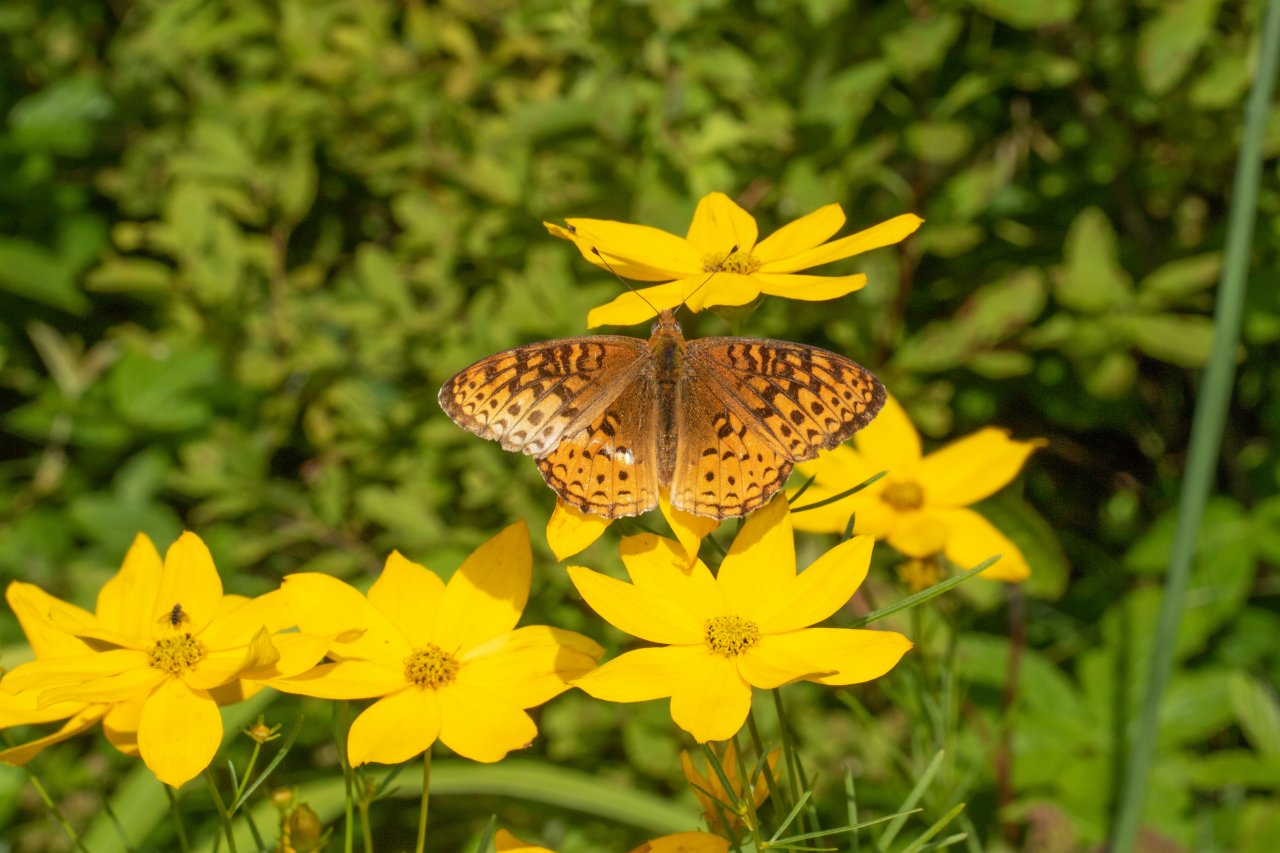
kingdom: Animalia
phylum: Arthropoda
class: Insecta
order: Lepidoptera
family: Nymphalidae
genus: Speyeria
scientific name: Speyeria atlantis
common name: Atlantis Fritillary
